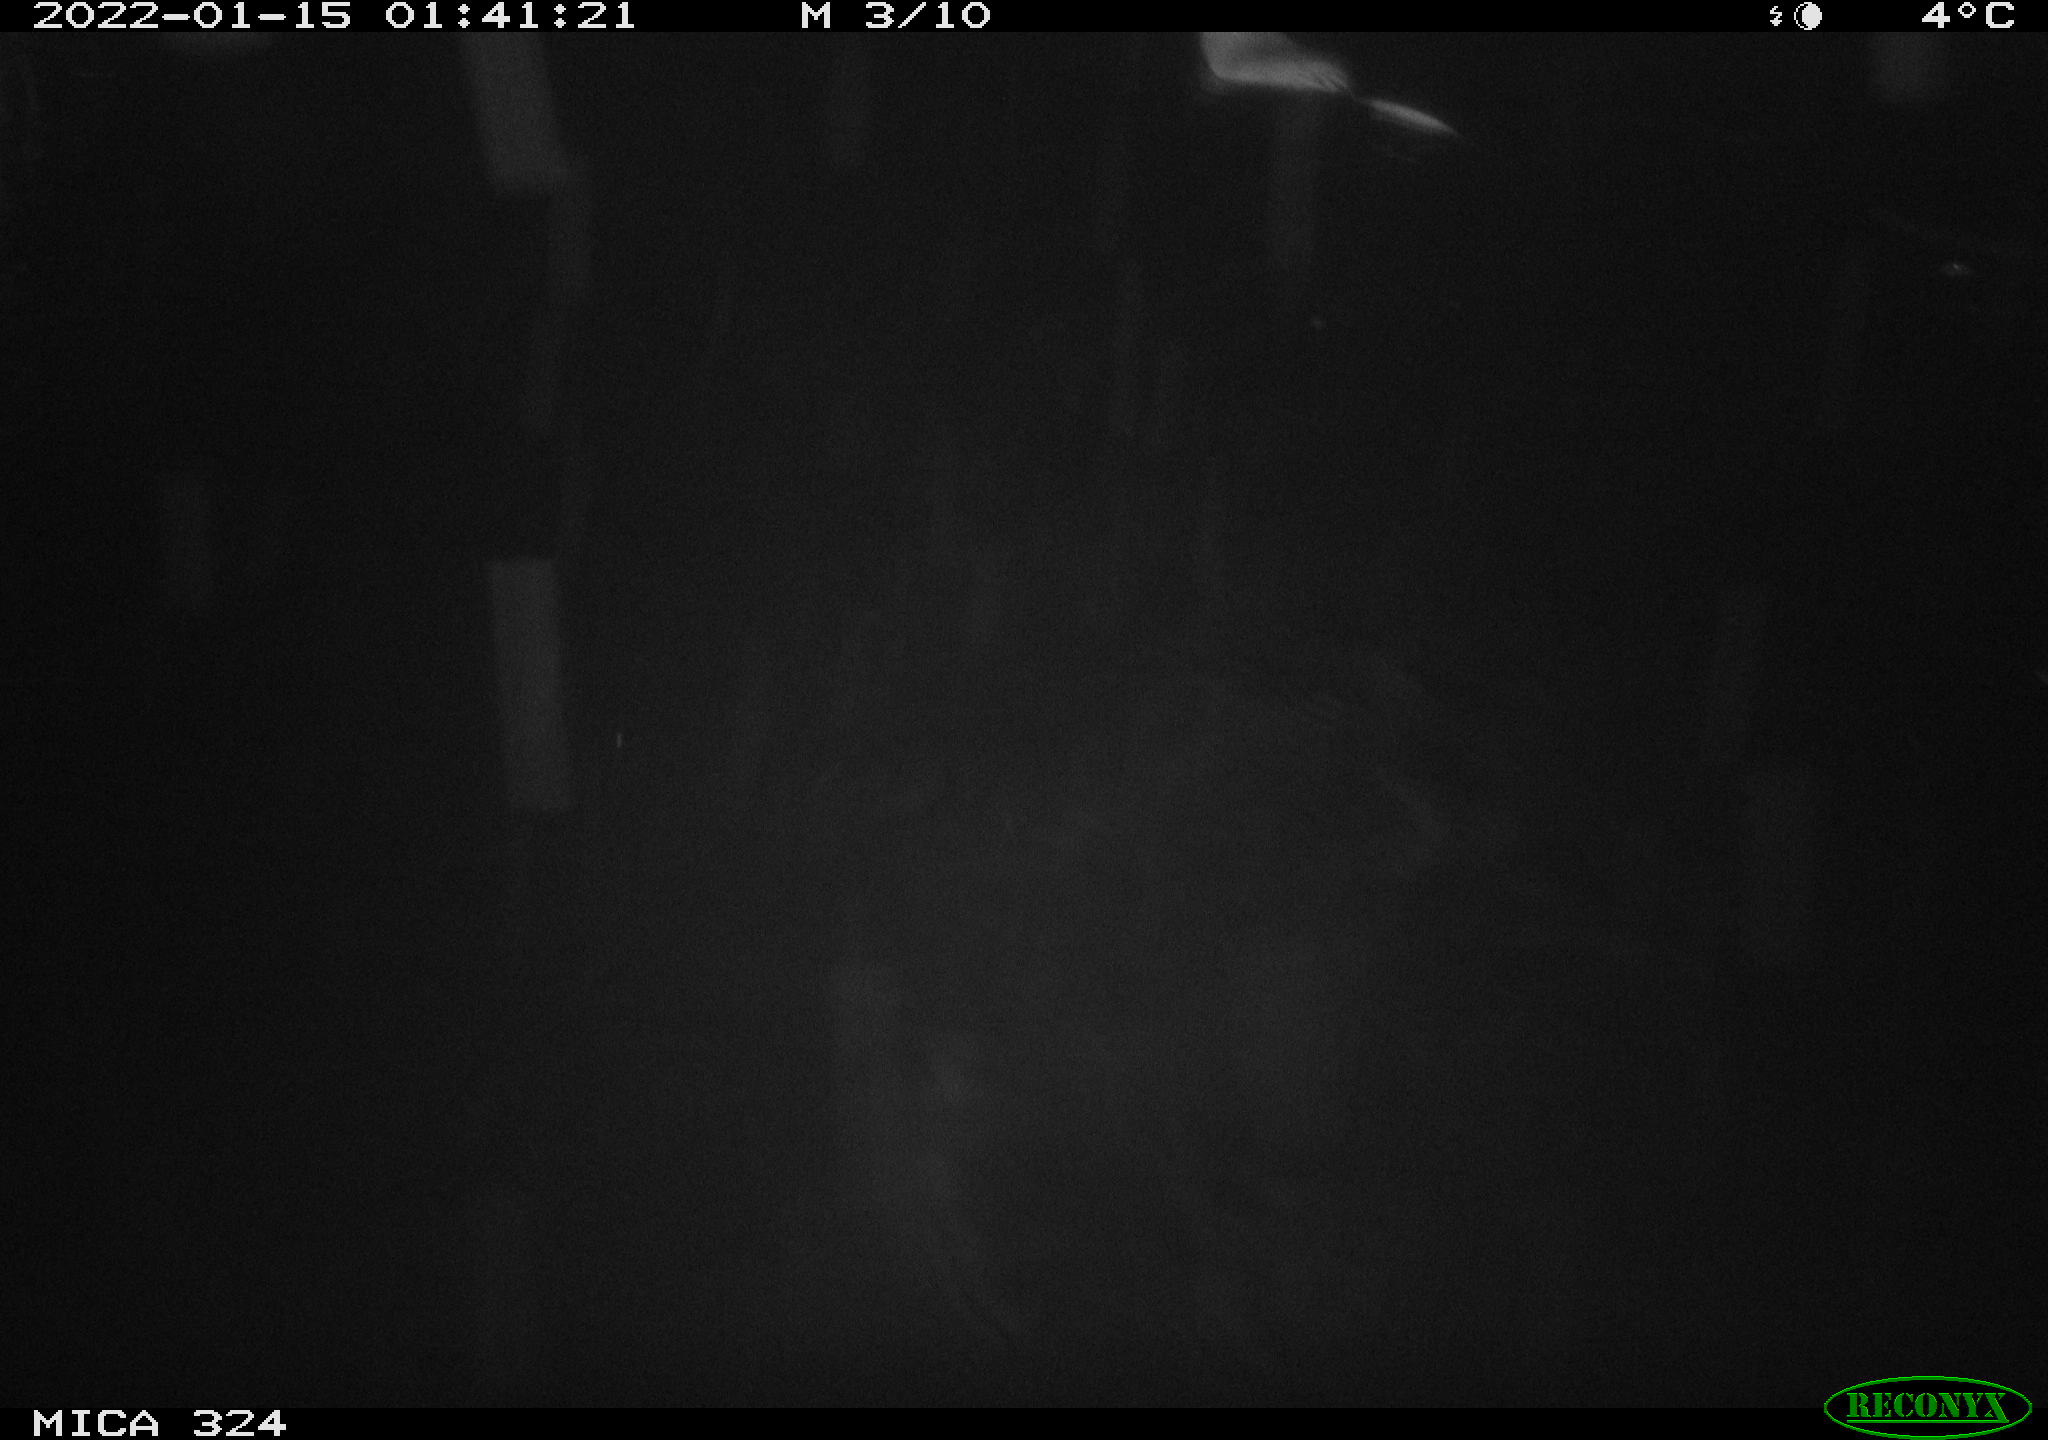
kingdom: Animalia
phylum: Chordata
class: Mammalia
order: Rodentia
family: Cricetidae
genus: Ondatra
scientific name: Ondatra zibethicus
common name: Muskrat
